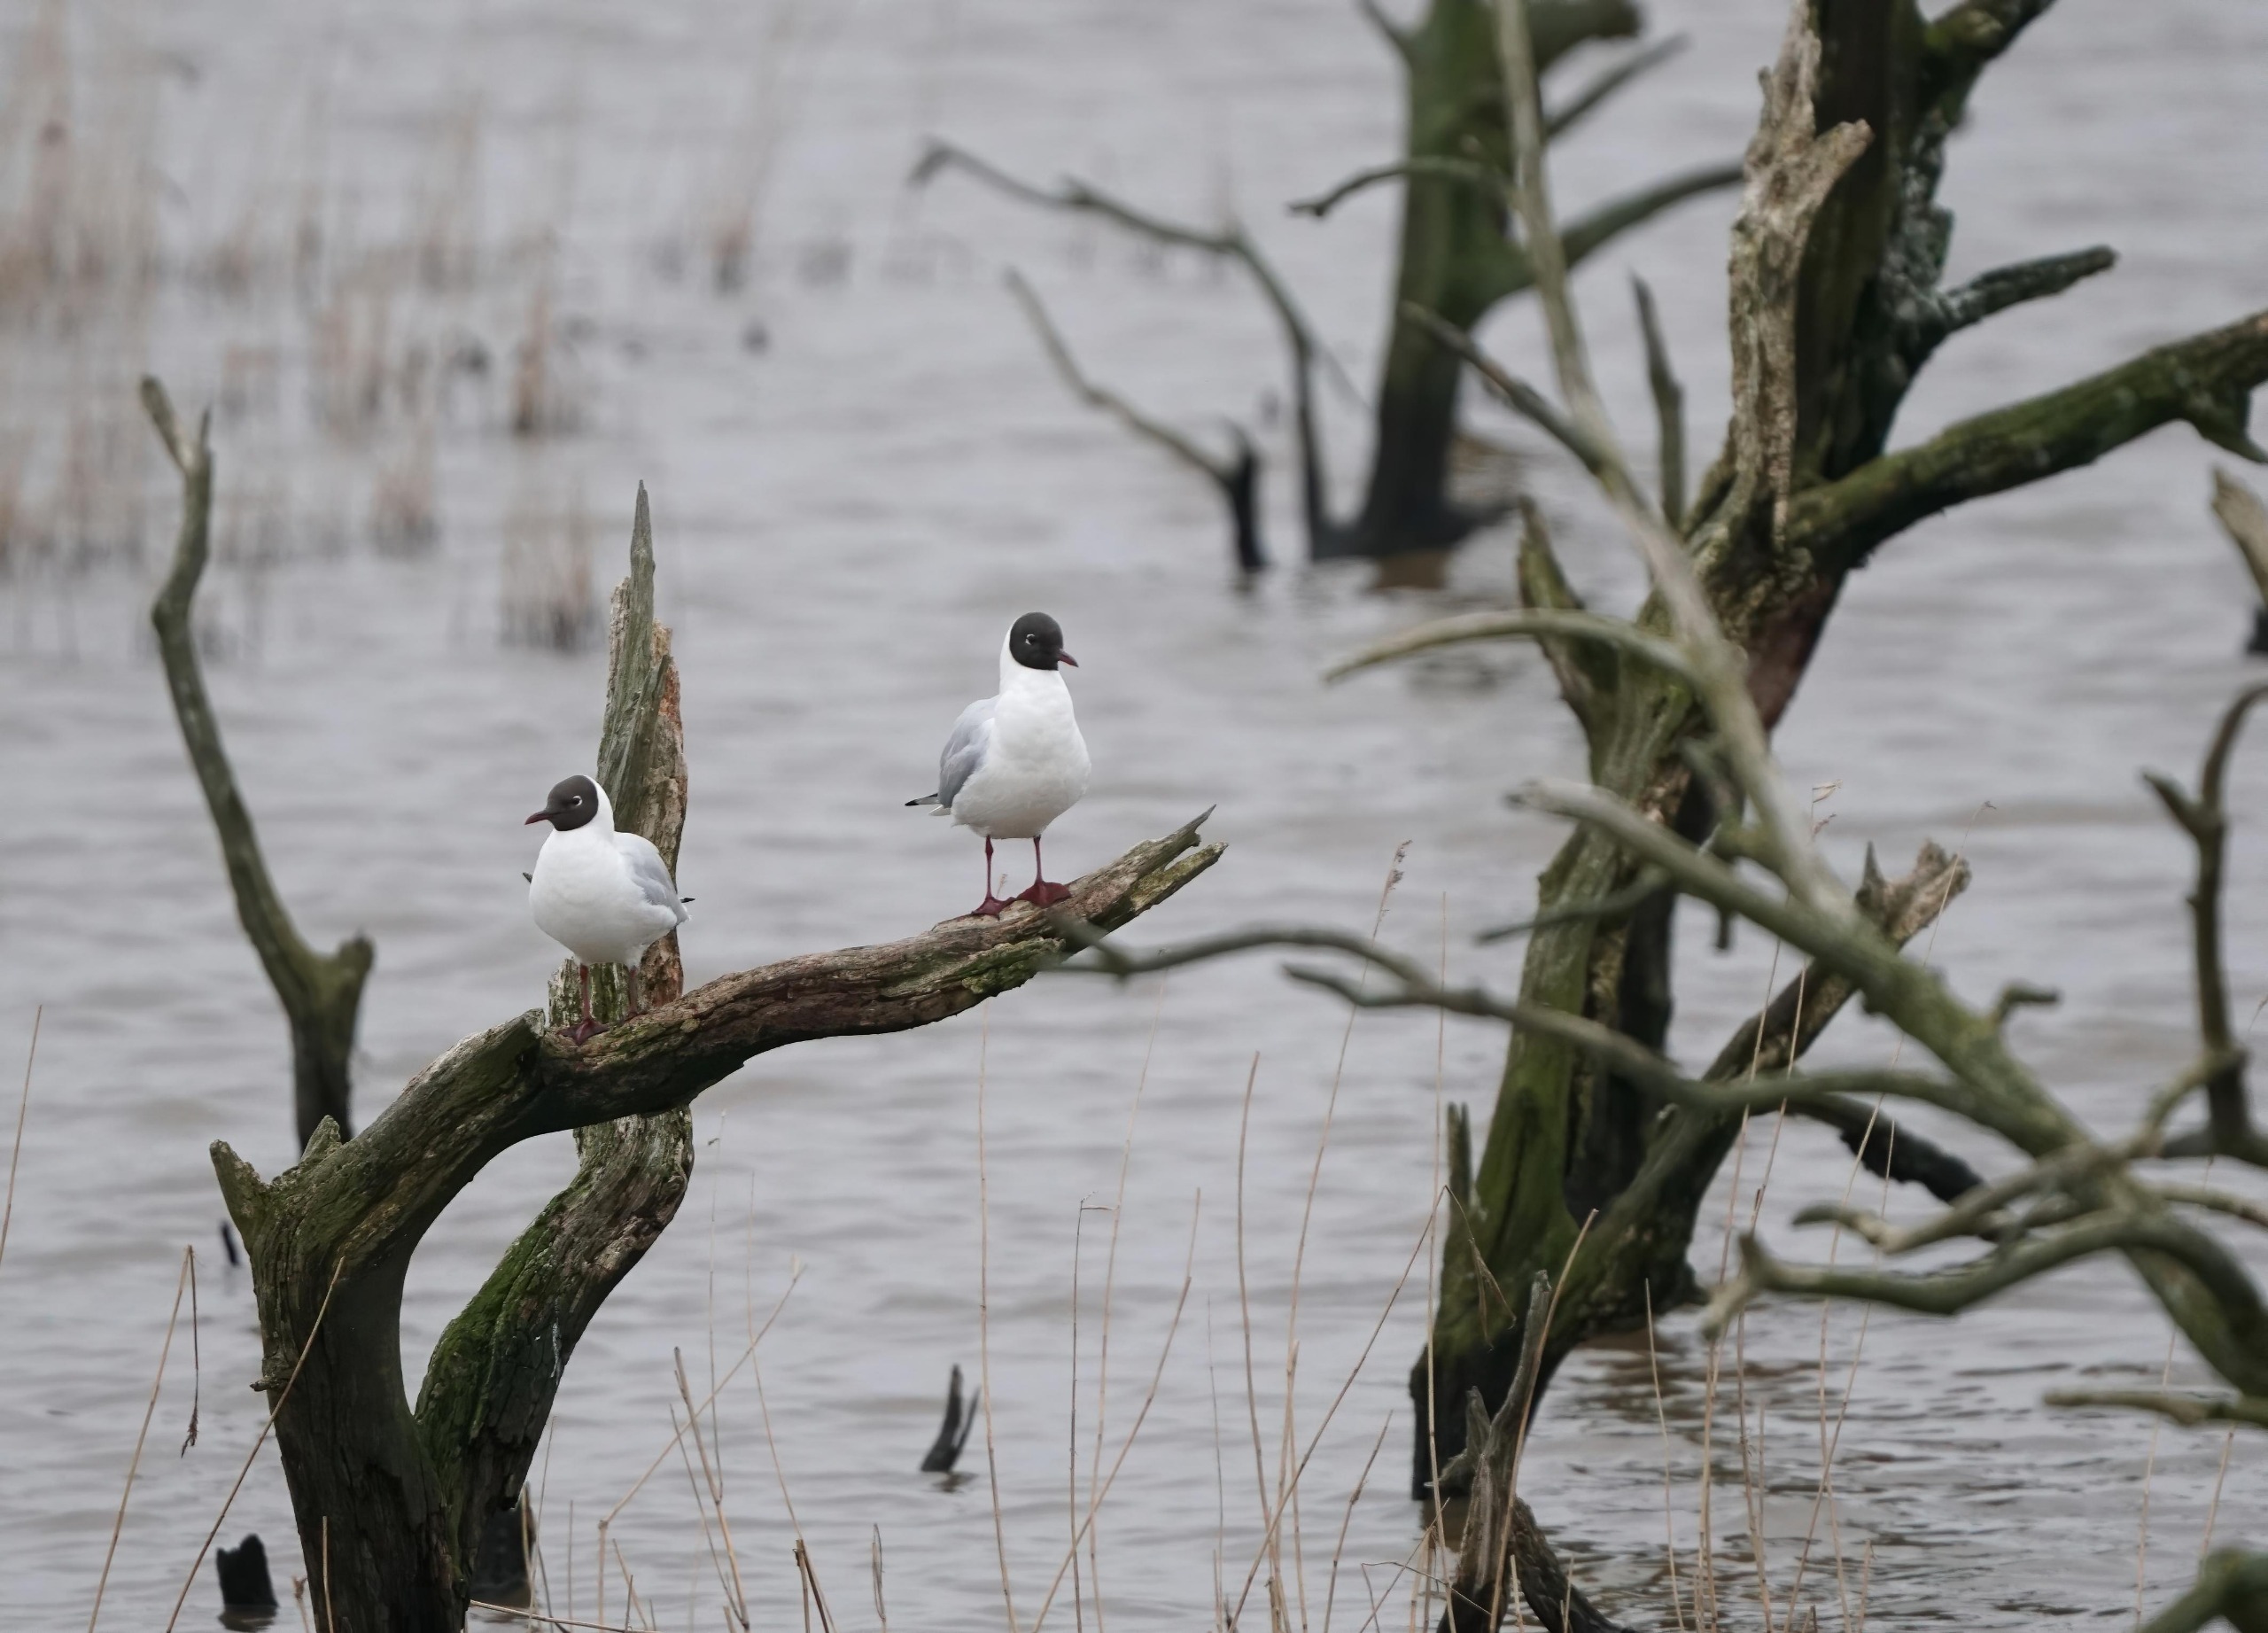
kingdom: Animalia
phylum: Chordata
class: Aves
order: Charadriiformes
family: Laridae
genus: Chroicocephalus
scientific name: Chroicocephalus ridibundus
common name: Hættemåge
